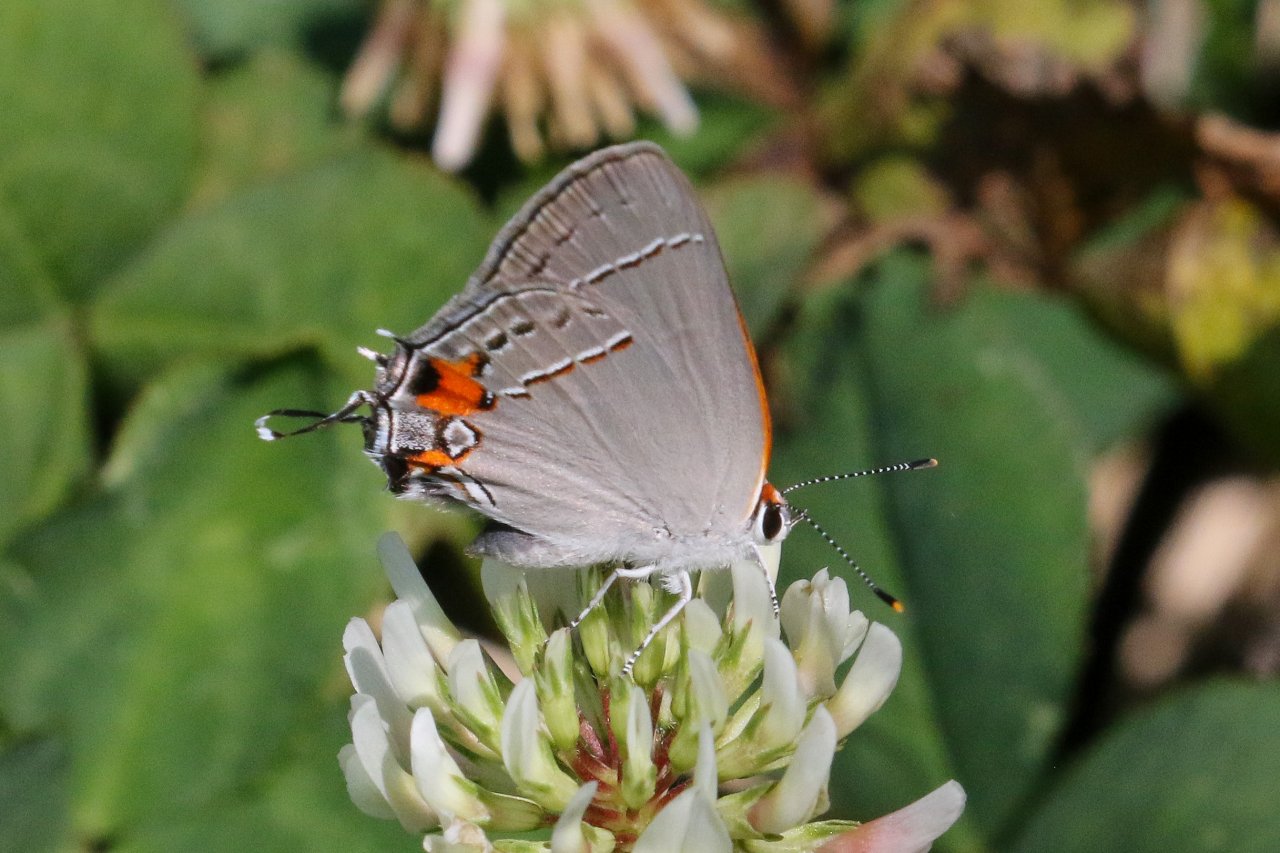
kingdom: Animalia
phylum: Arthropoda
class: Insecta
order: Lepidoptera
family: Lycaenidae
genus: Strymon
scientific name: Strymon melinus
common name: Gray Hairstreak
